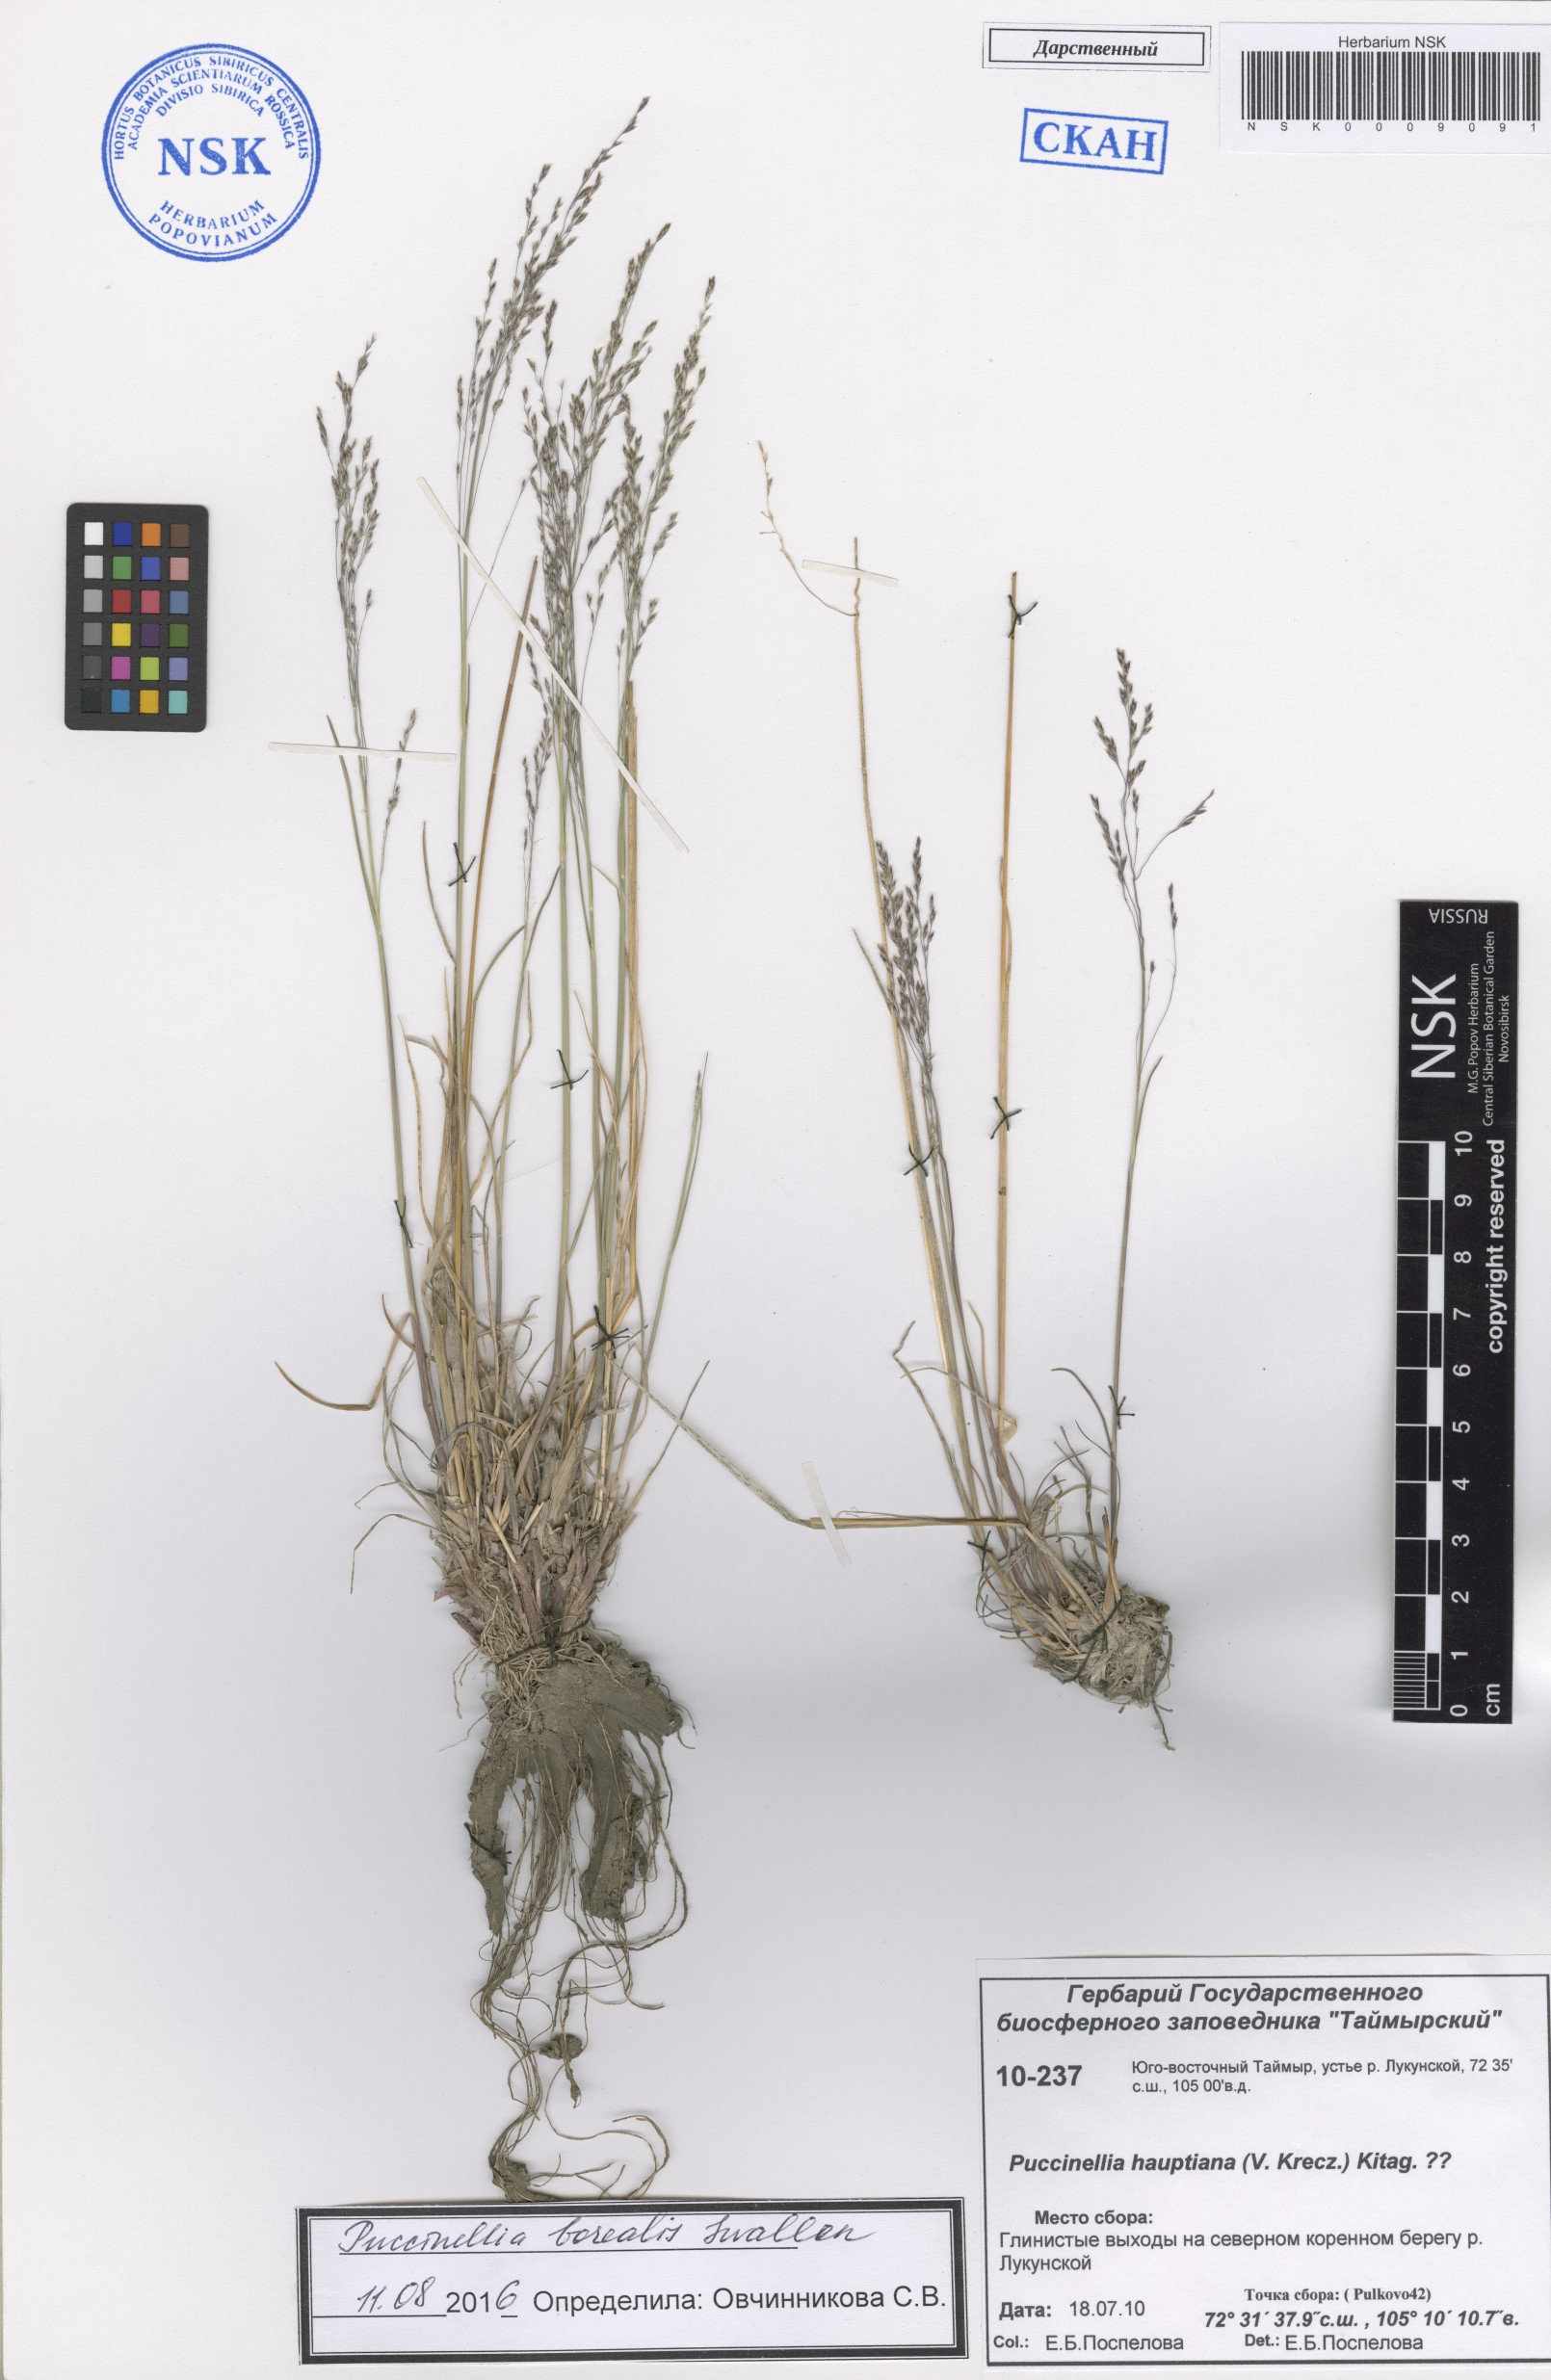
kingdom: Plantae
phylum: Tracheophyta
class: Liliopsida
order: Poales
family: Poaceae
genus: Puccinellia
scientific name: Puccinellia nuttalliana
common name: Nuttall's alkali grass
